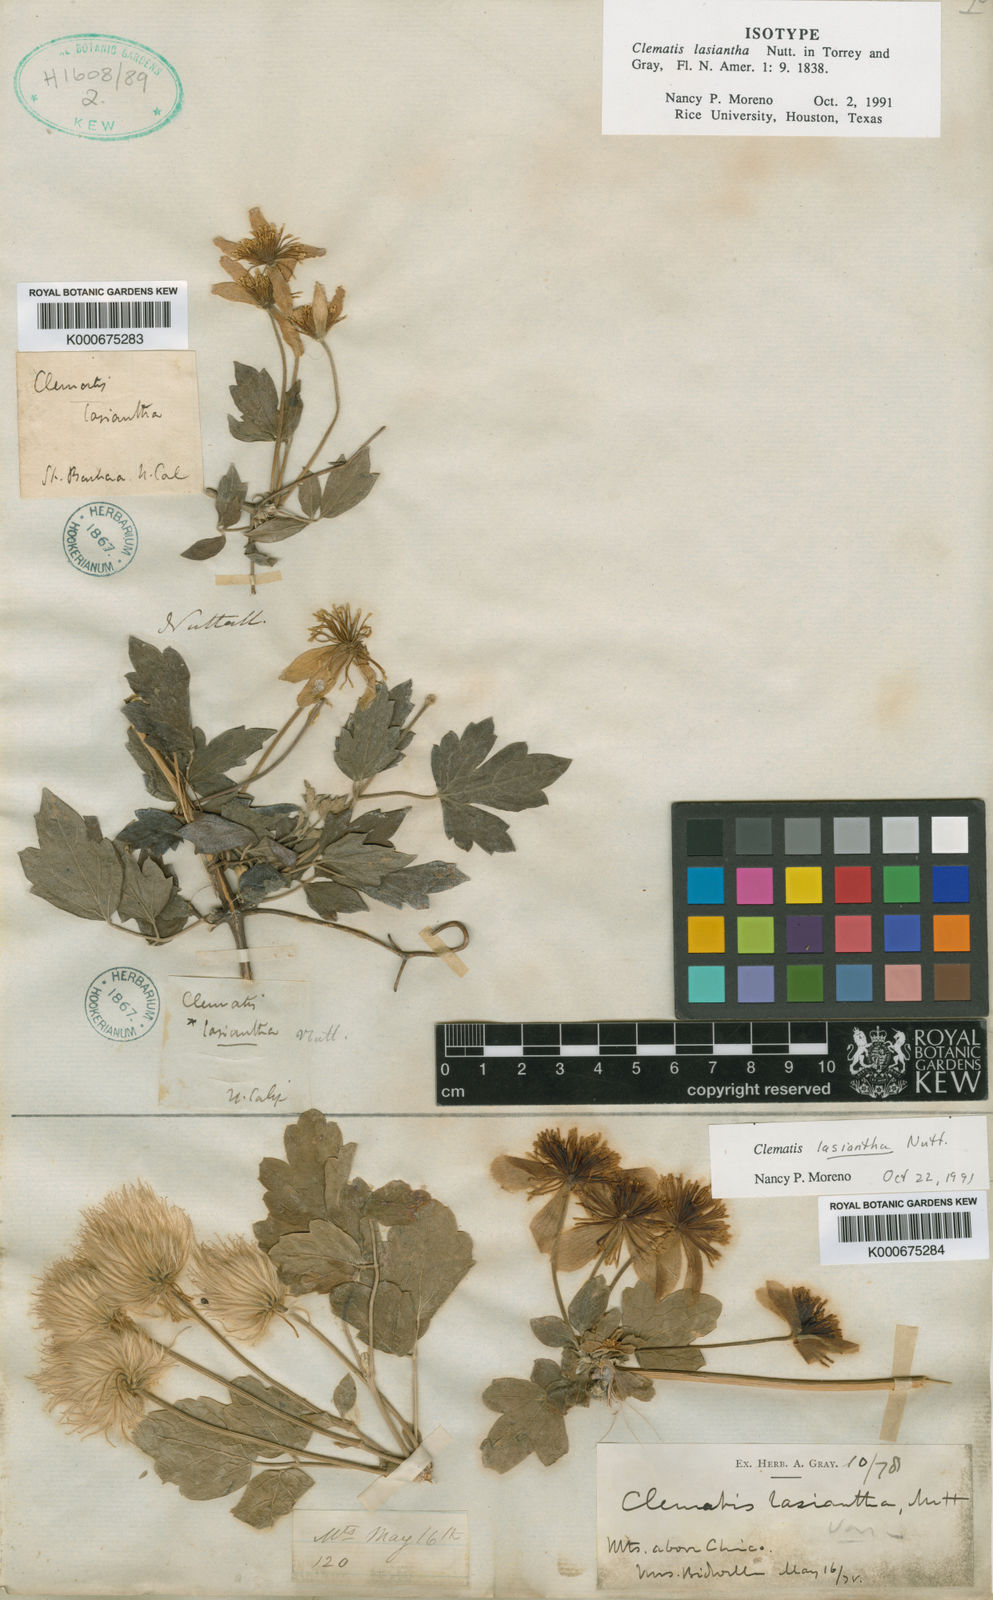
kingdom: Plantae
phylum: Tracheophyta
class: Magnoliopsida
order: Ranunculales
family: Ranunculaceae
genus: Clematis
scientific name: Clematis lasiantha
